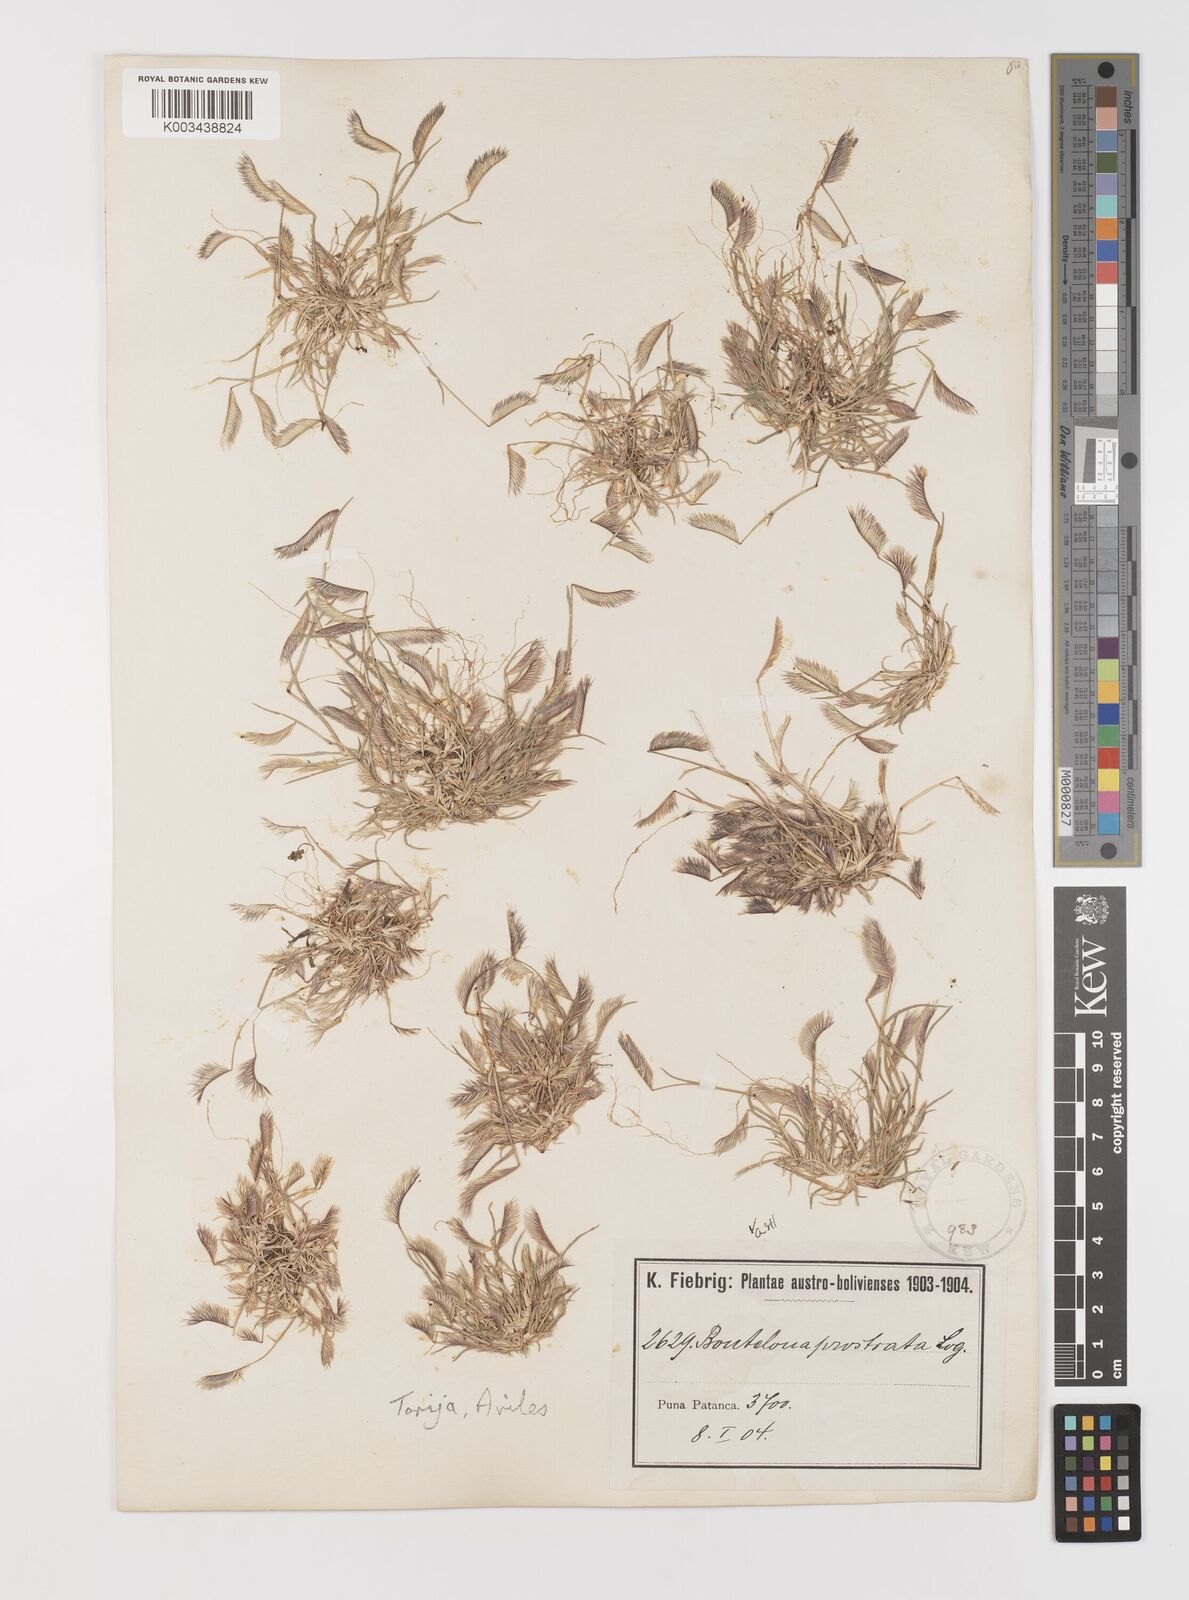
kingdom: Plantae
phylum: Tracheophyta
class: Liliopsida
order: Poales
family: Poaceae
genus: Bouteloua
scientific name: Bouteloua simplex
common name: Mat grama
